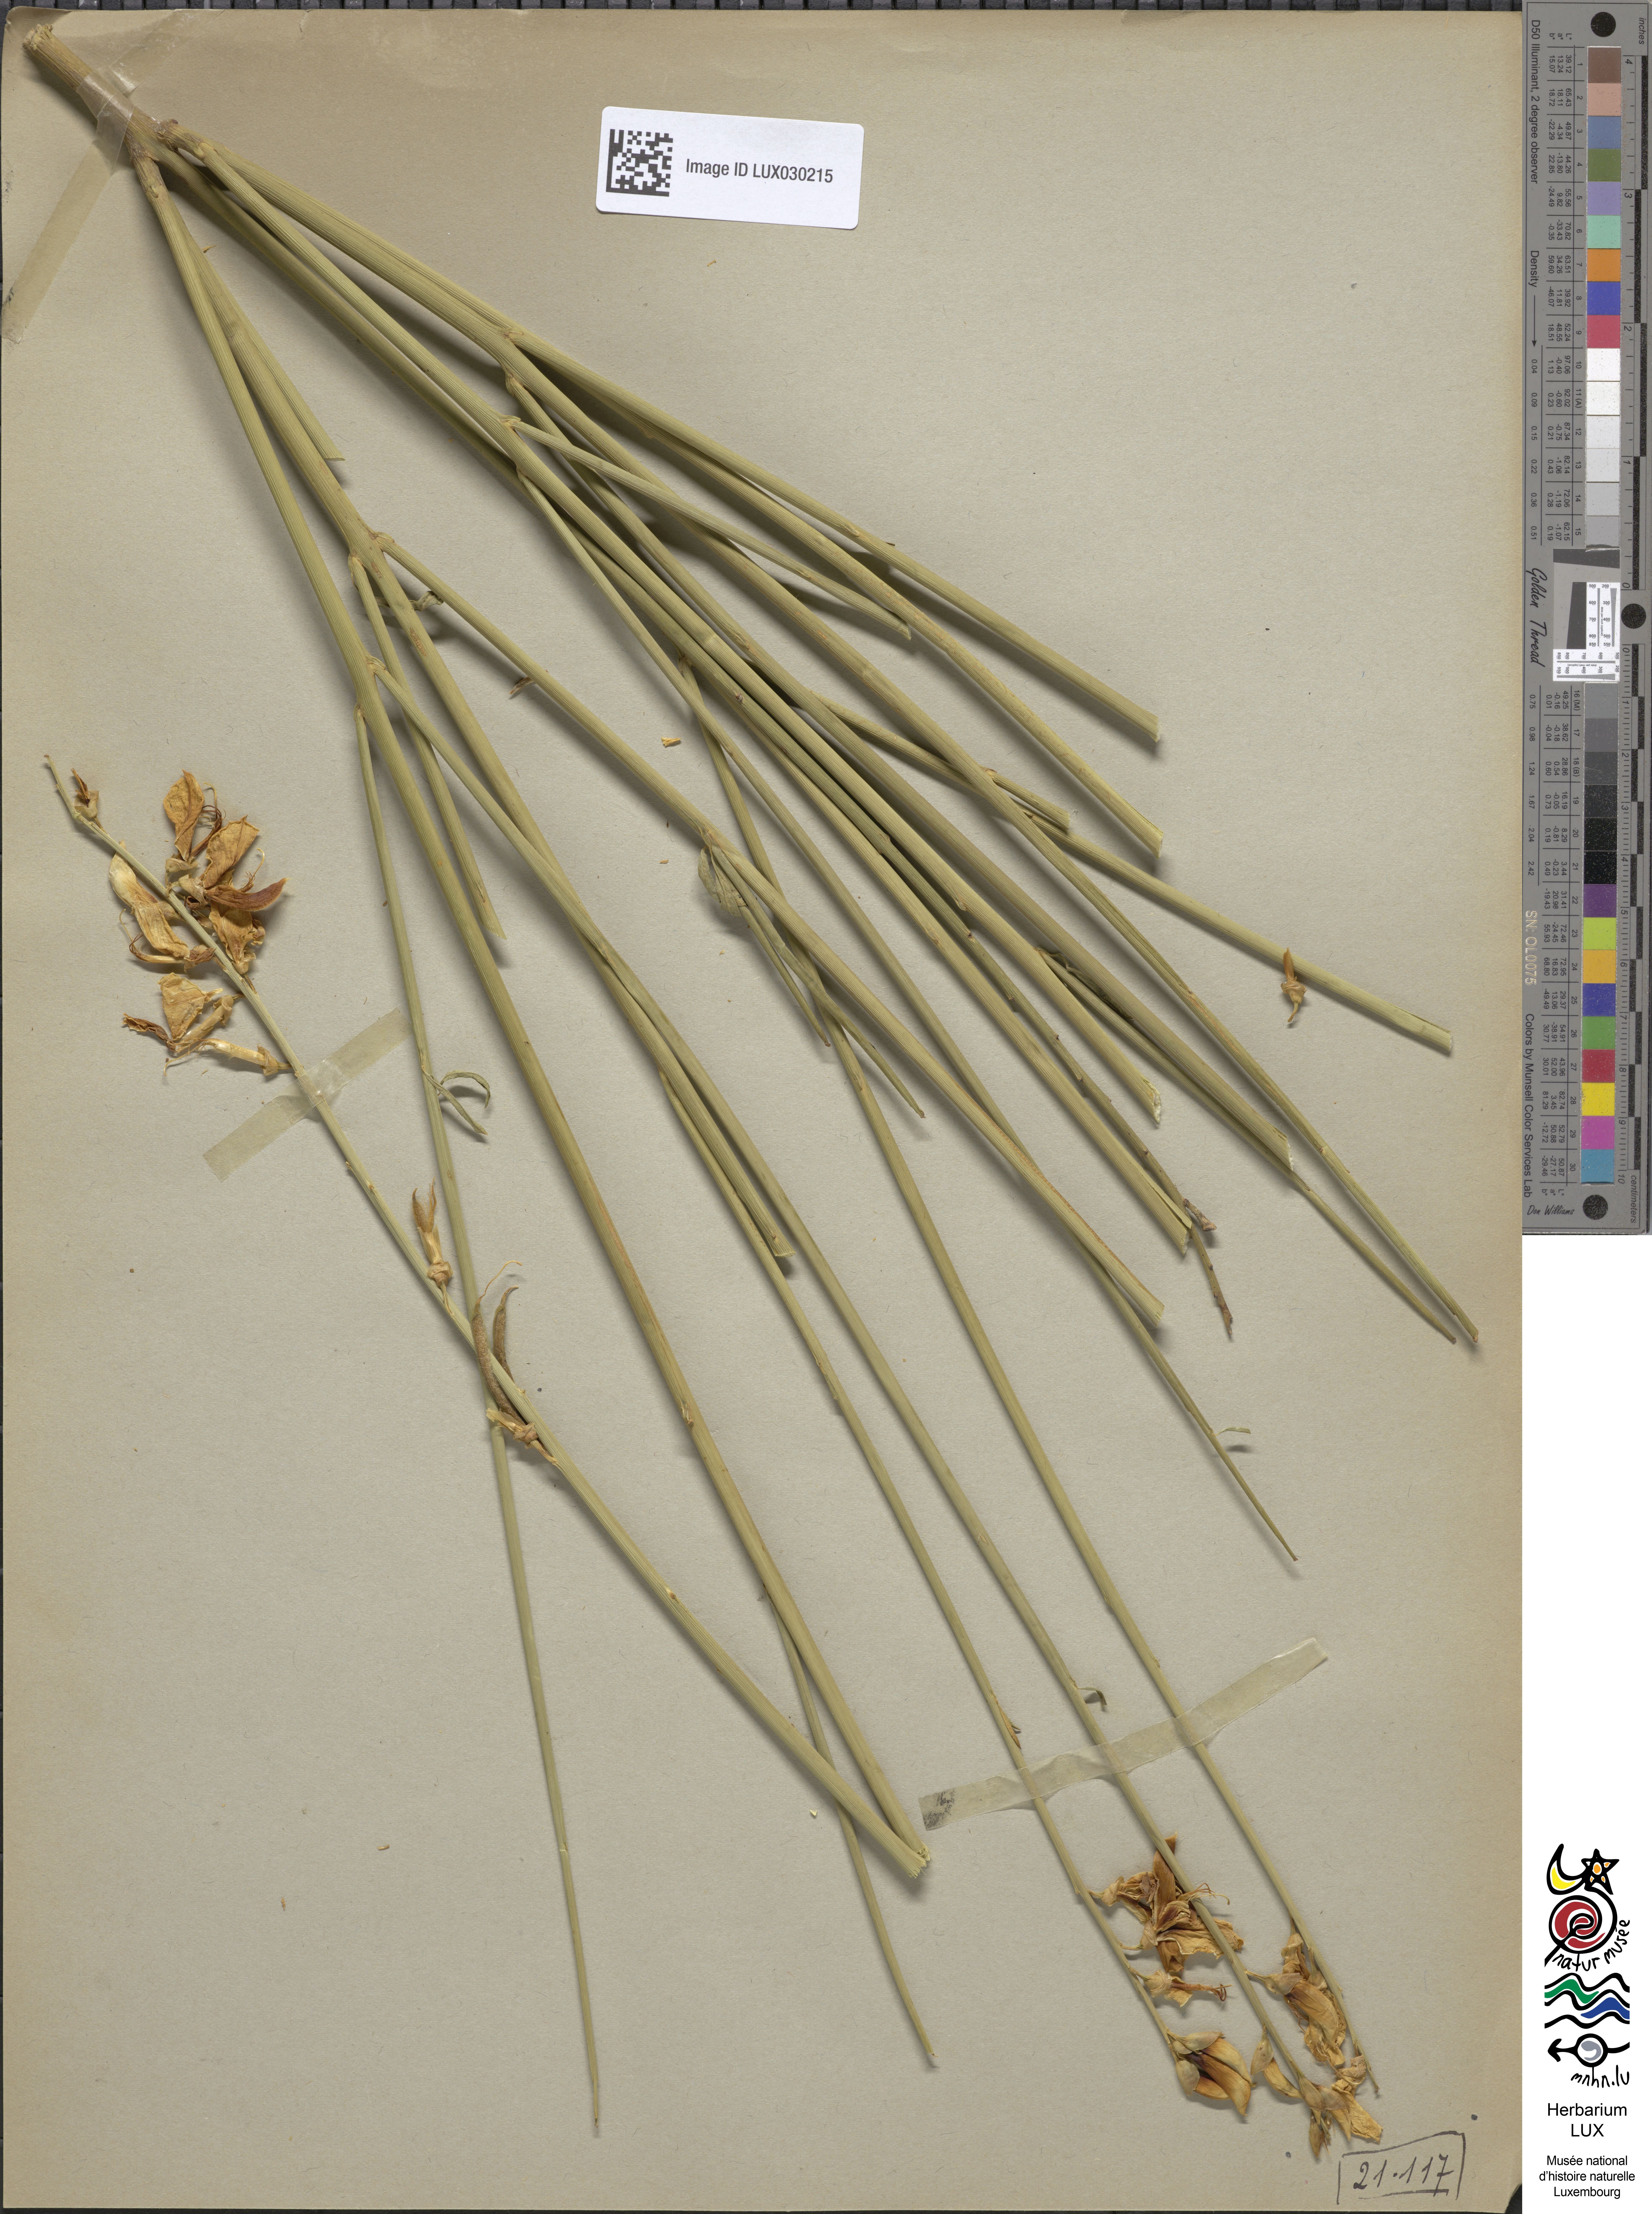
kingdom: Plantae
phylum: Tracheophyta
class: Magnoliopsida
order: Fabales
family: Fabaceae
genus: Spartium
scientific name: Spartium junceum
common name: Spanish broom
